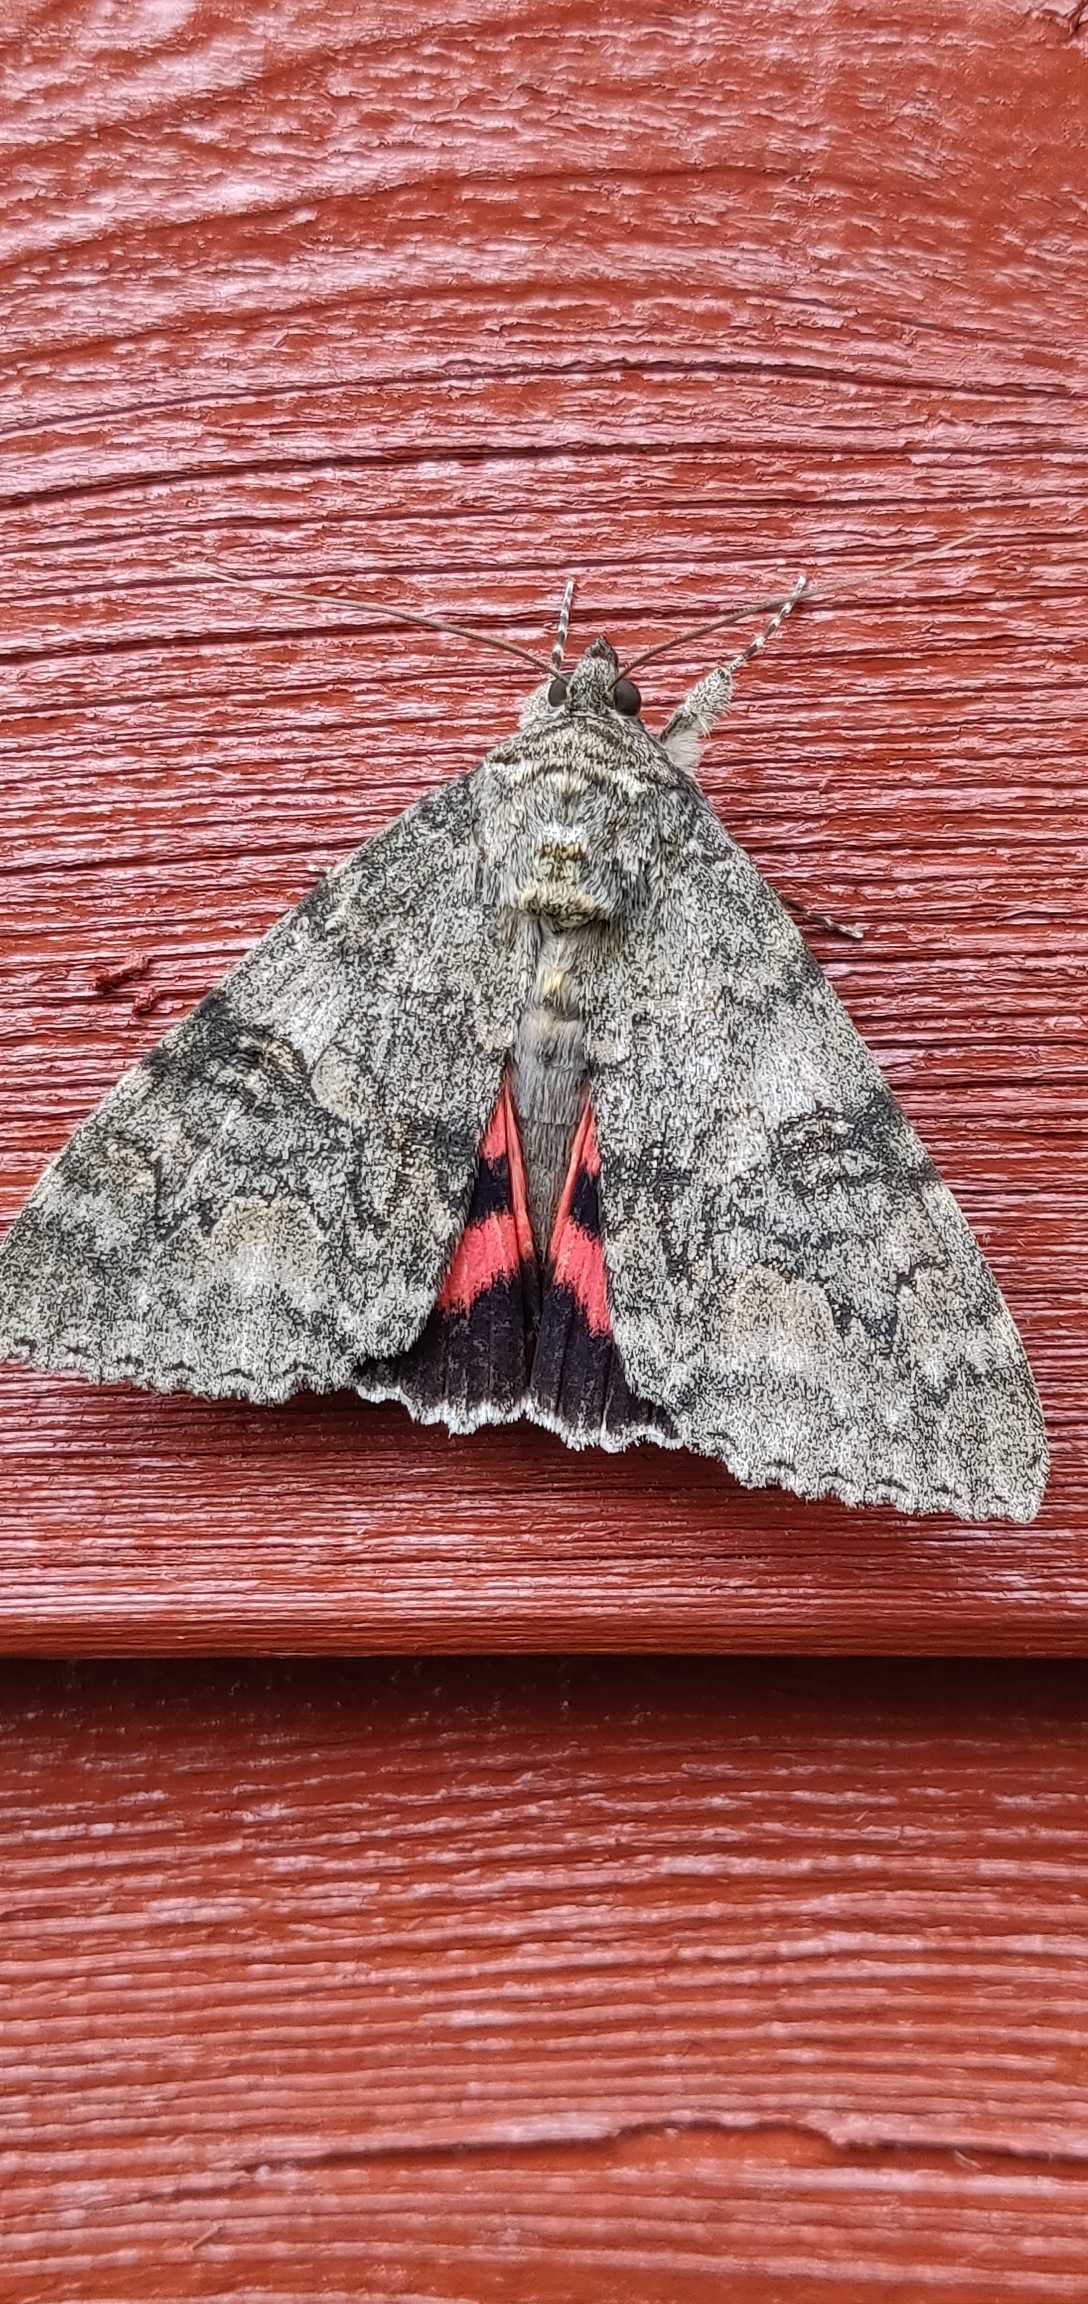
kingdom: Animalia
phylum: Arthropoda
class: Insecta
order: Lepidoptera
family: Erebidae
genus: Catocala
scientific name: Catocala nupta
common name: Rødt ordensbånd
